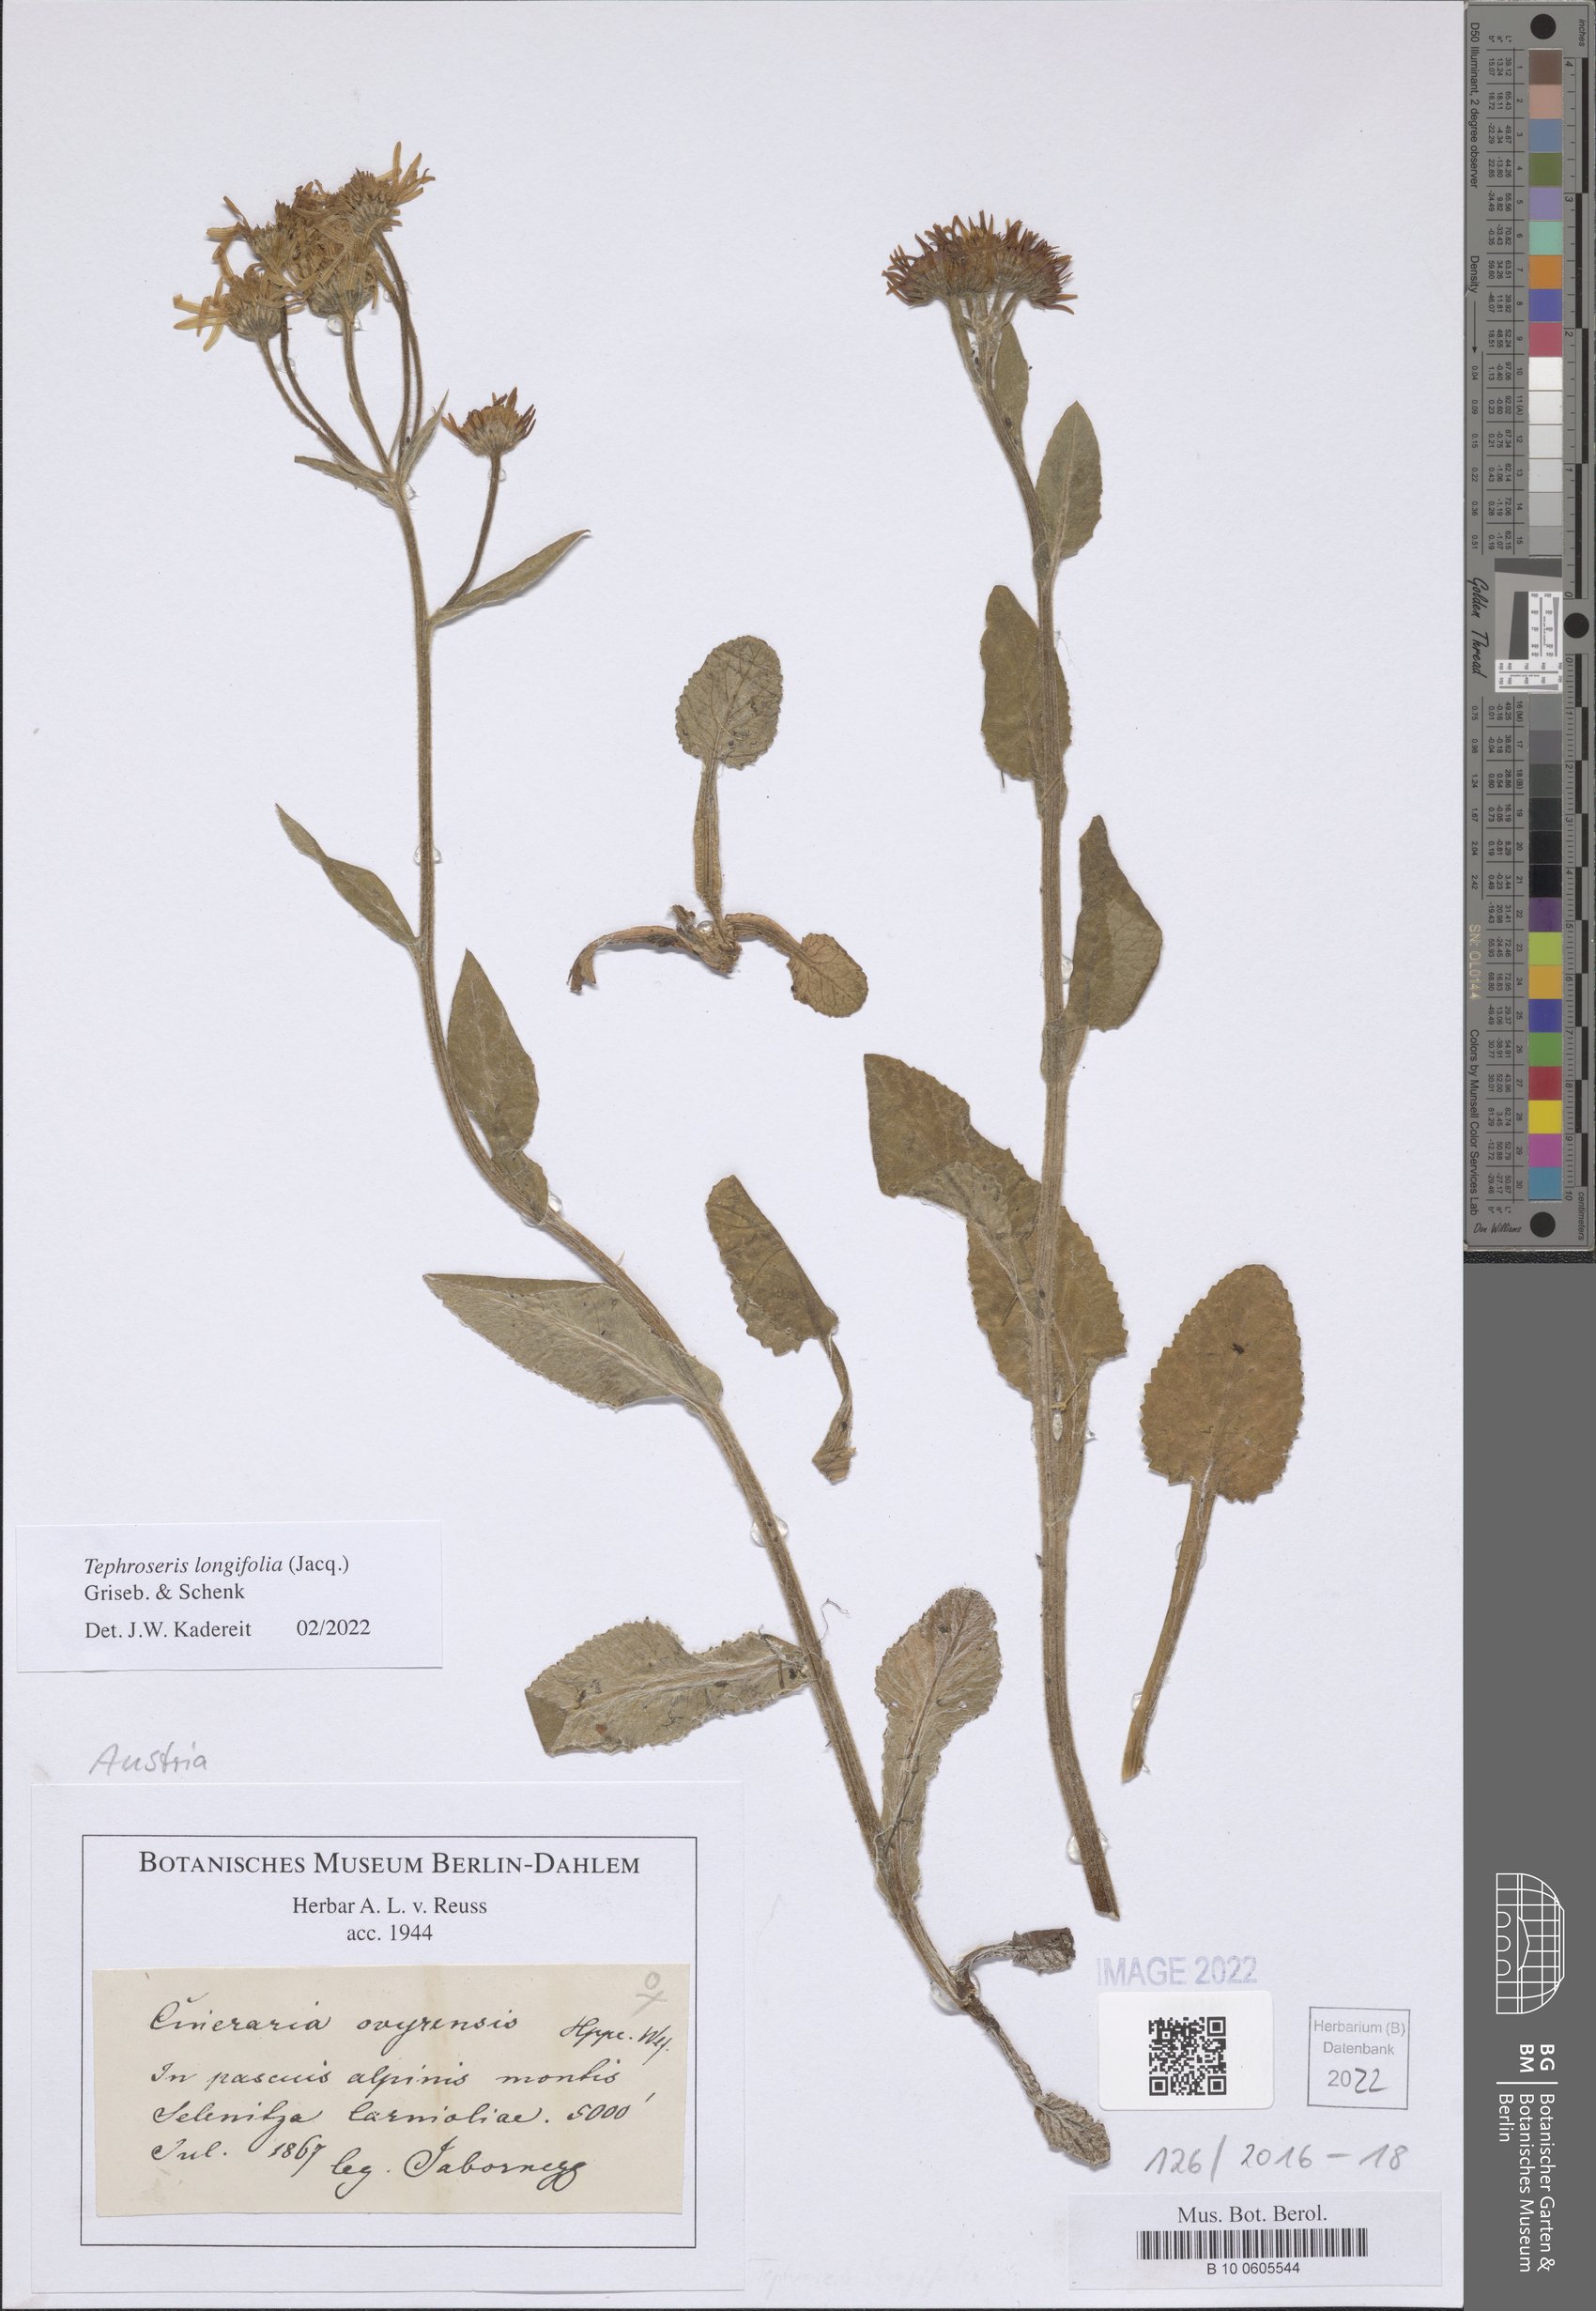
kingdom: Plantae
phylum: Tracheophyta
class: Magnoliopsida
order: Asterales
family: Asteraceae
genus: Tephroseris
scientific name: Tephroseris longifolia
